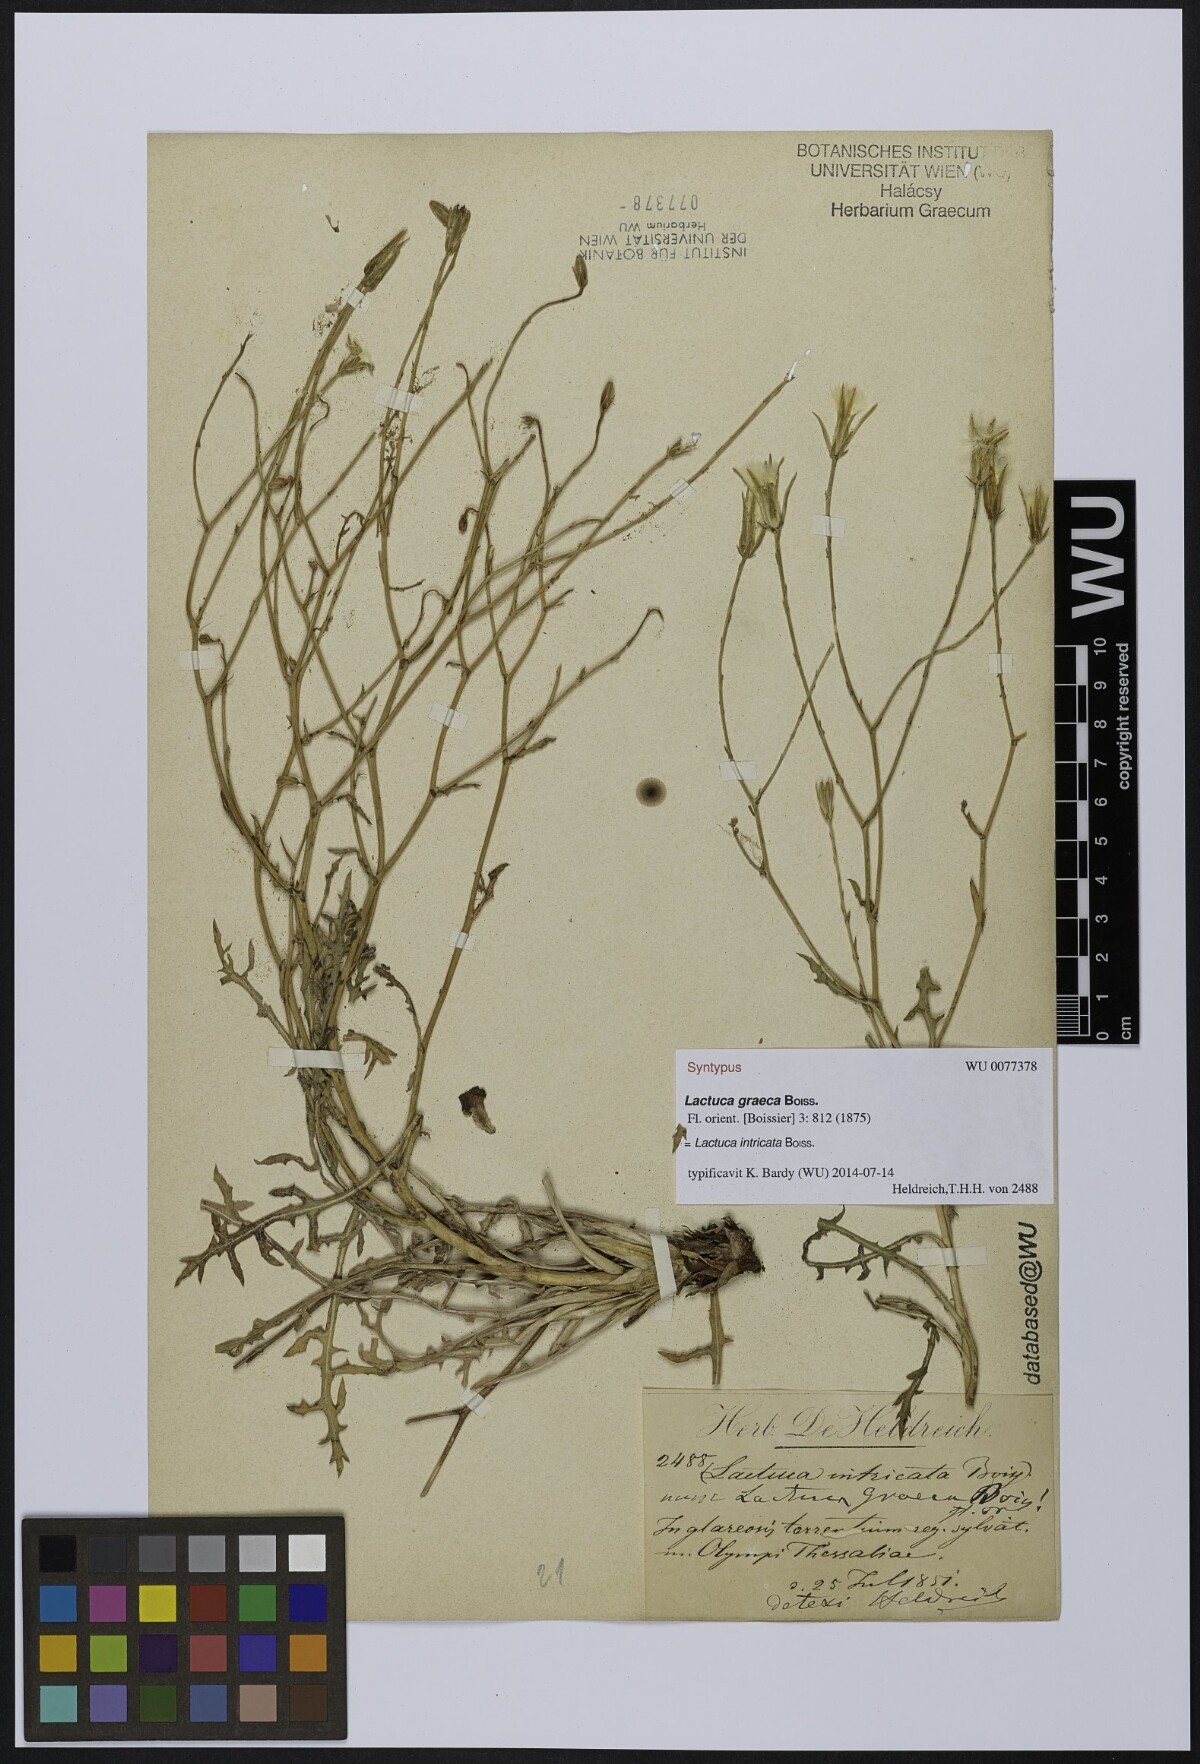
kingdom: Plantae
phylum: Tracheophyta
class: Magnoliopsida
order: Asterales
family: Asteraceae
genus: Lactuca
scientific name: Lactuca intricata
